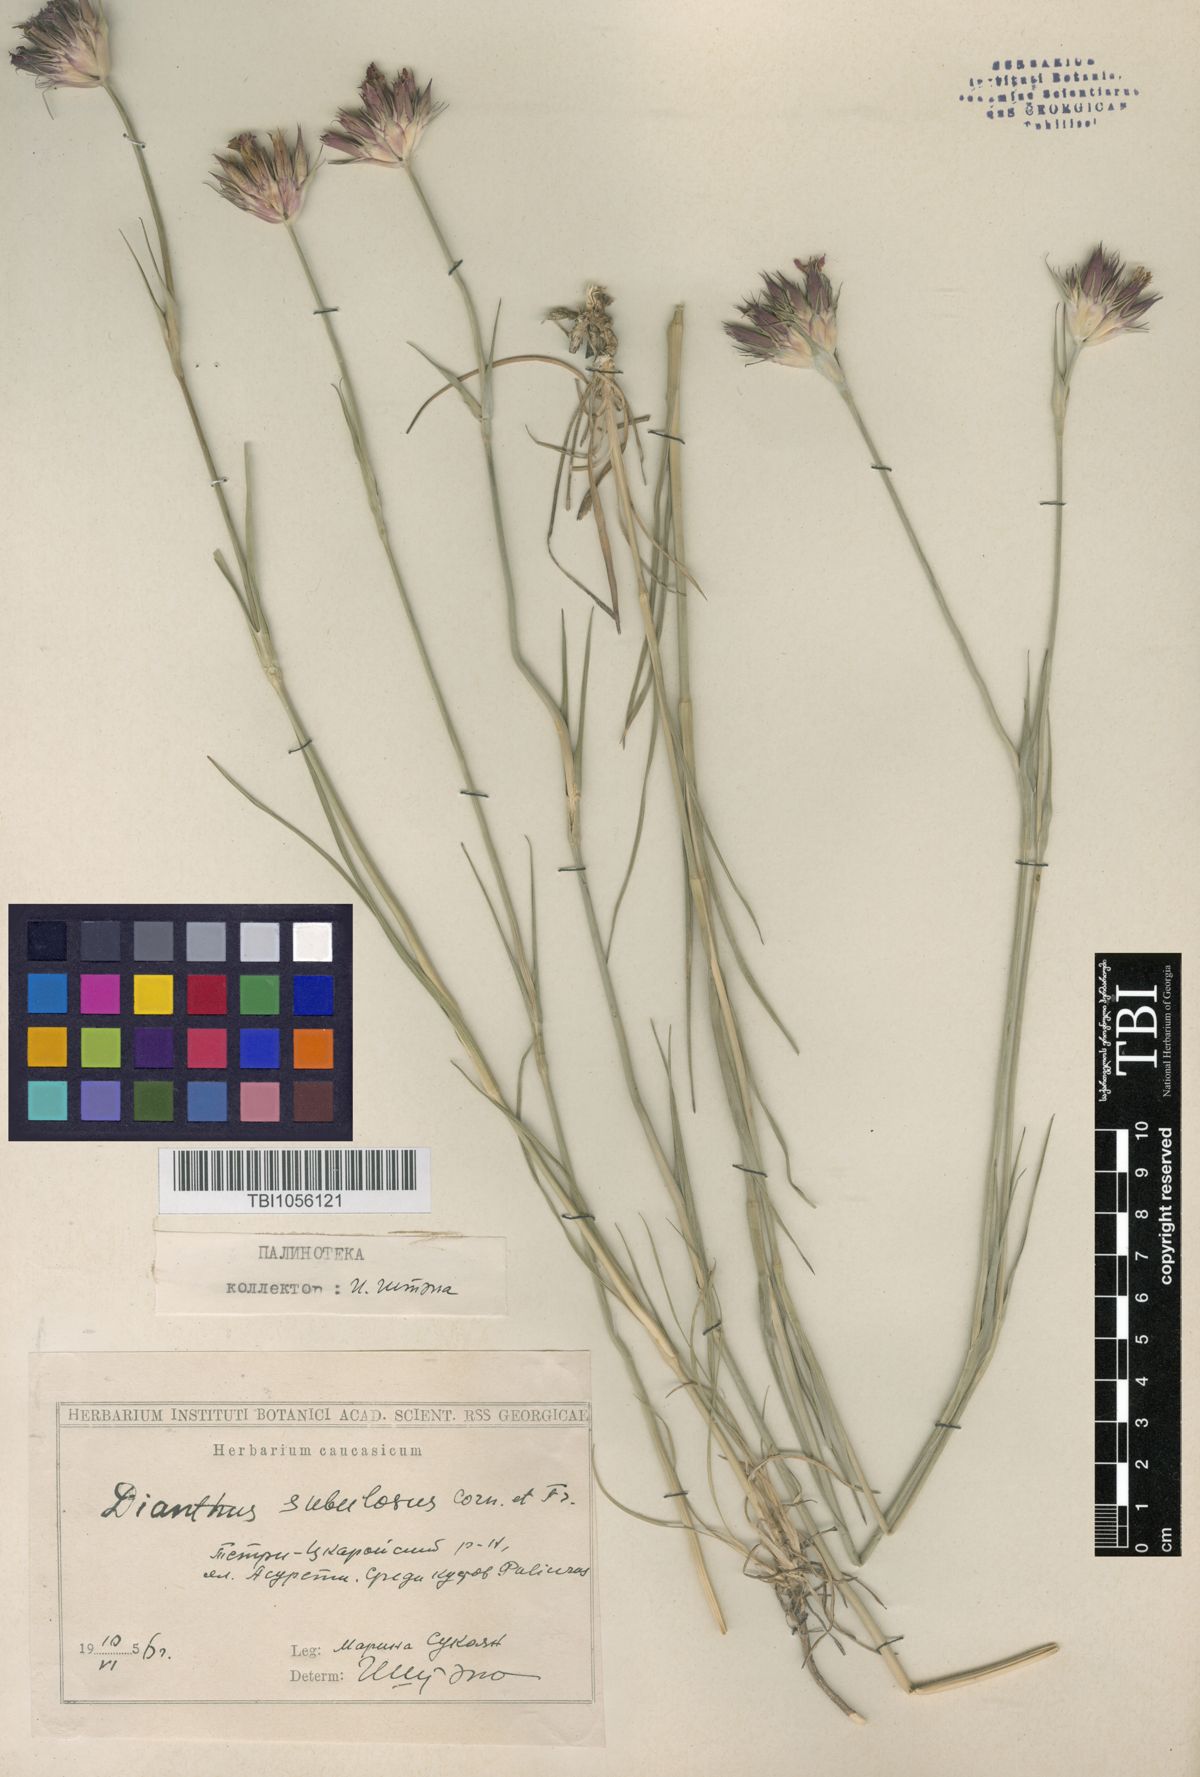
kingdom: Plantae
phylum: Tracheophyta
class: Magnoliopsida
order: Caryophyllales
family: Caryophyllaceae
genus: Dianthus
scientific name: Dianthus subulosus
